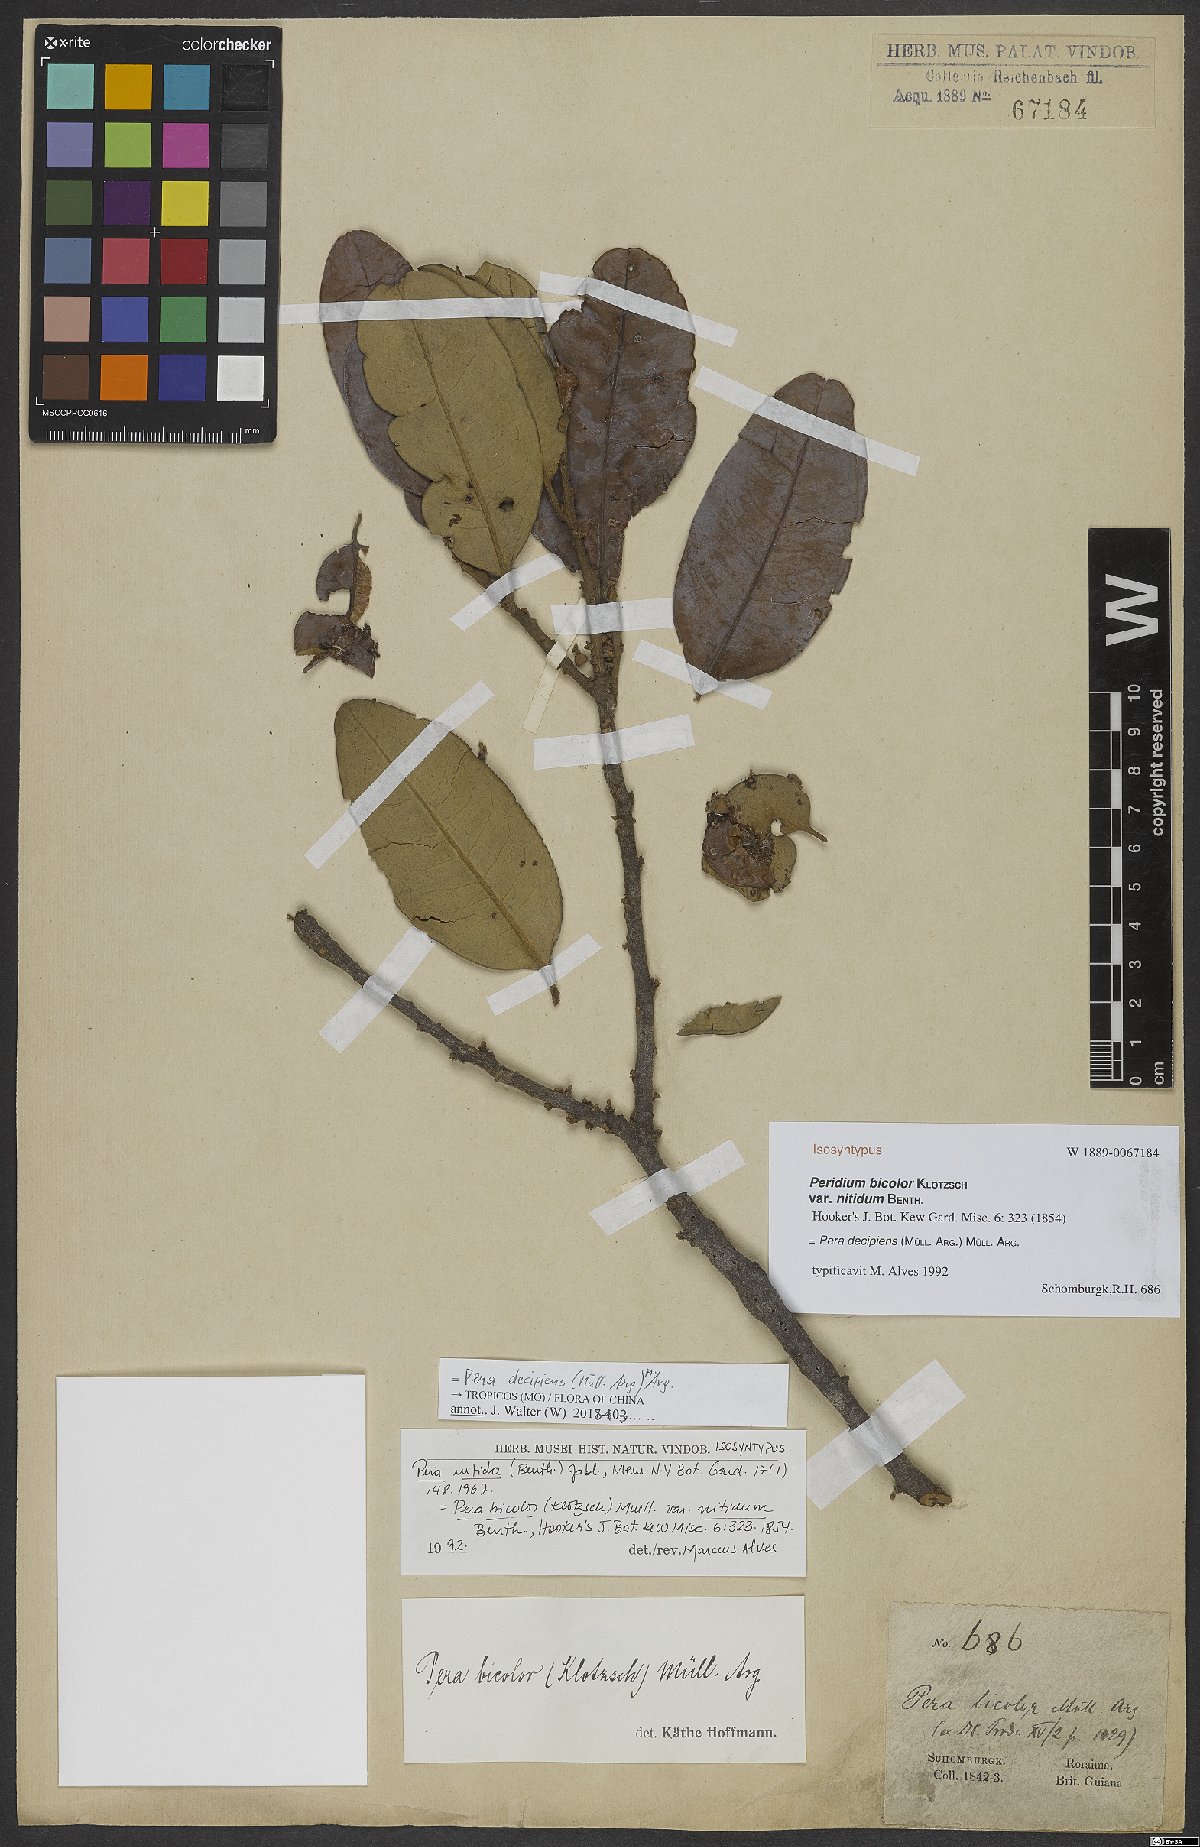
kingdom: Plantae
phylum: Tracheophyta
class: Magnoliopsida
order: Malpighiales
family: Peraceae
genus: Pera
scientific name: Pera decipiens
